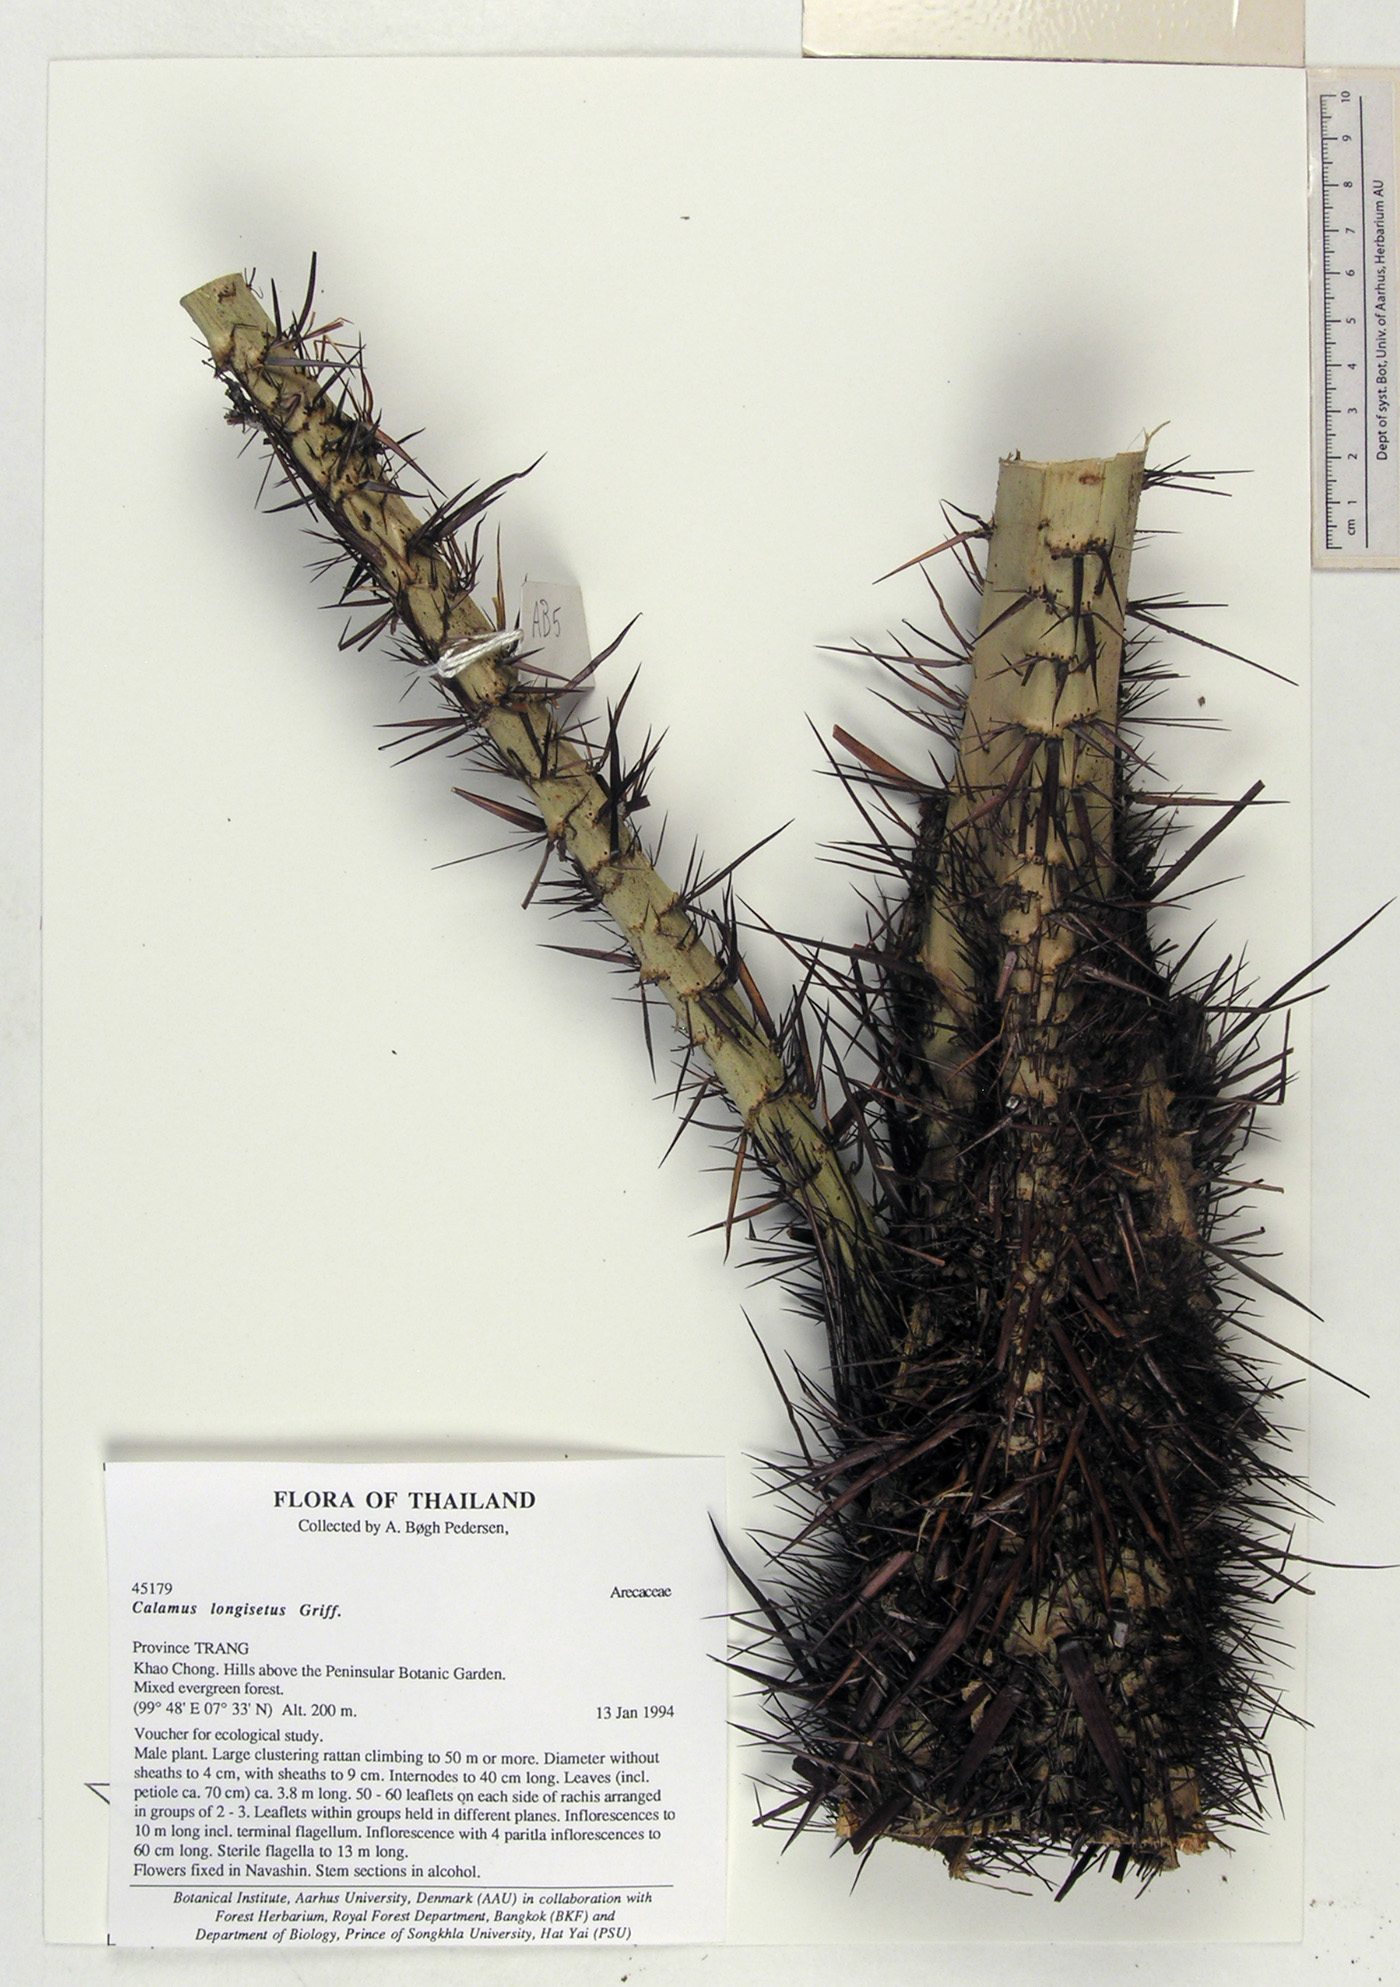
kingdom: Plantae
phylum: Tracheophyta
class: Liliopsida
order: Arecales
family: Arecaceae
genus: Calamus
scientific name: Calamus longisetus
